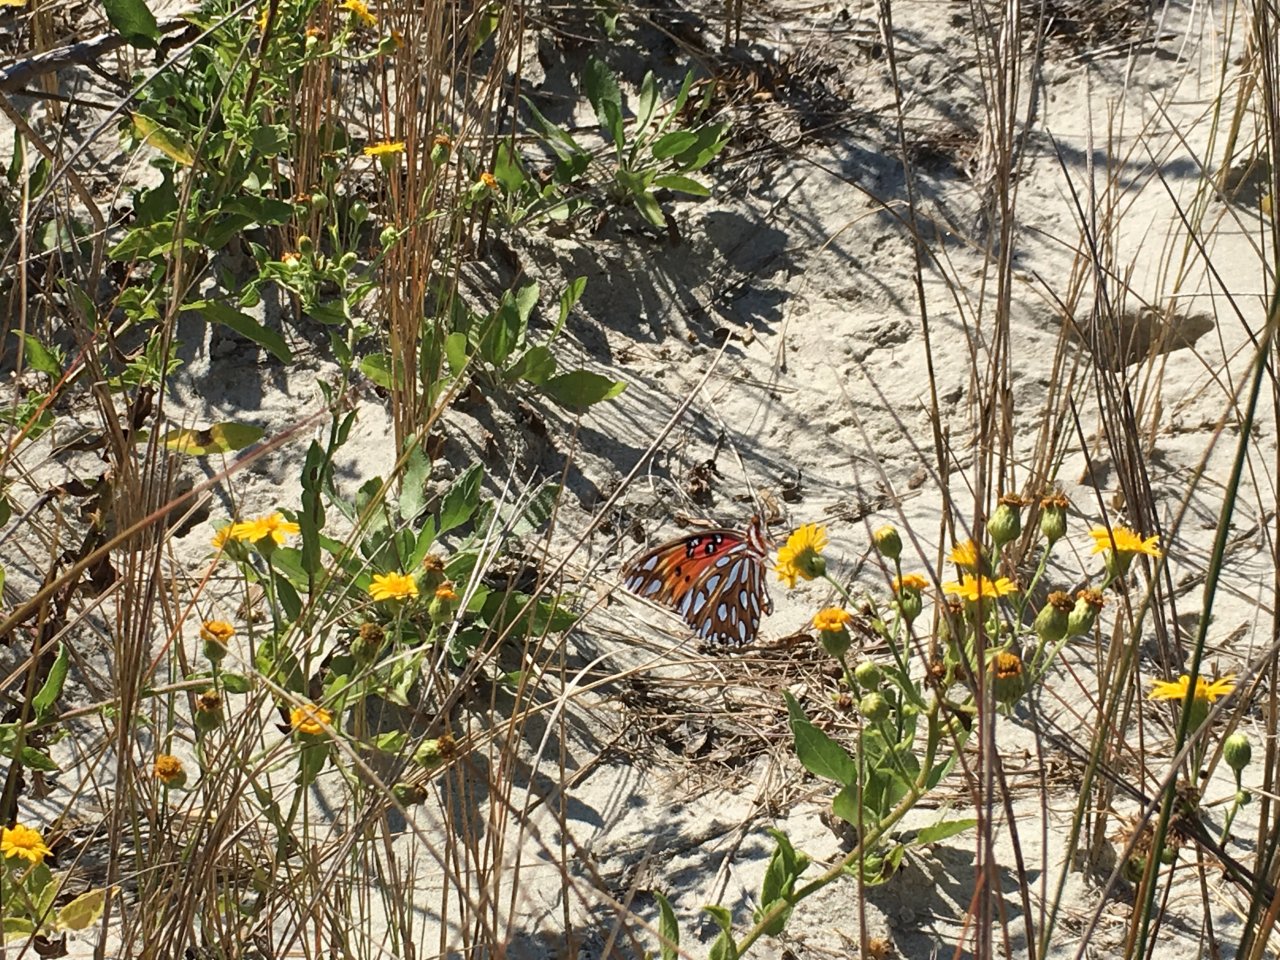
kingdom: Animalia
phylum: Arthropoda
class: Insecta
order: Lepidoptera
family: Nymphalidae
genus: Dione
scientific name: Dione vanillae
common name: Gulf Fritillary
